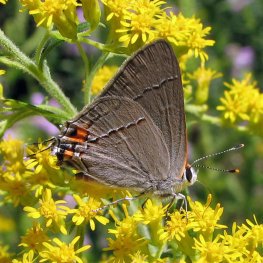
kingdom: Animalia
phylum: Arthropoda
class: Insecta
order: Lepidoptera
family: Lycaenidae
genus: Strymon
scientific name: Strymon melinus
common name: Gray Hairstreak
